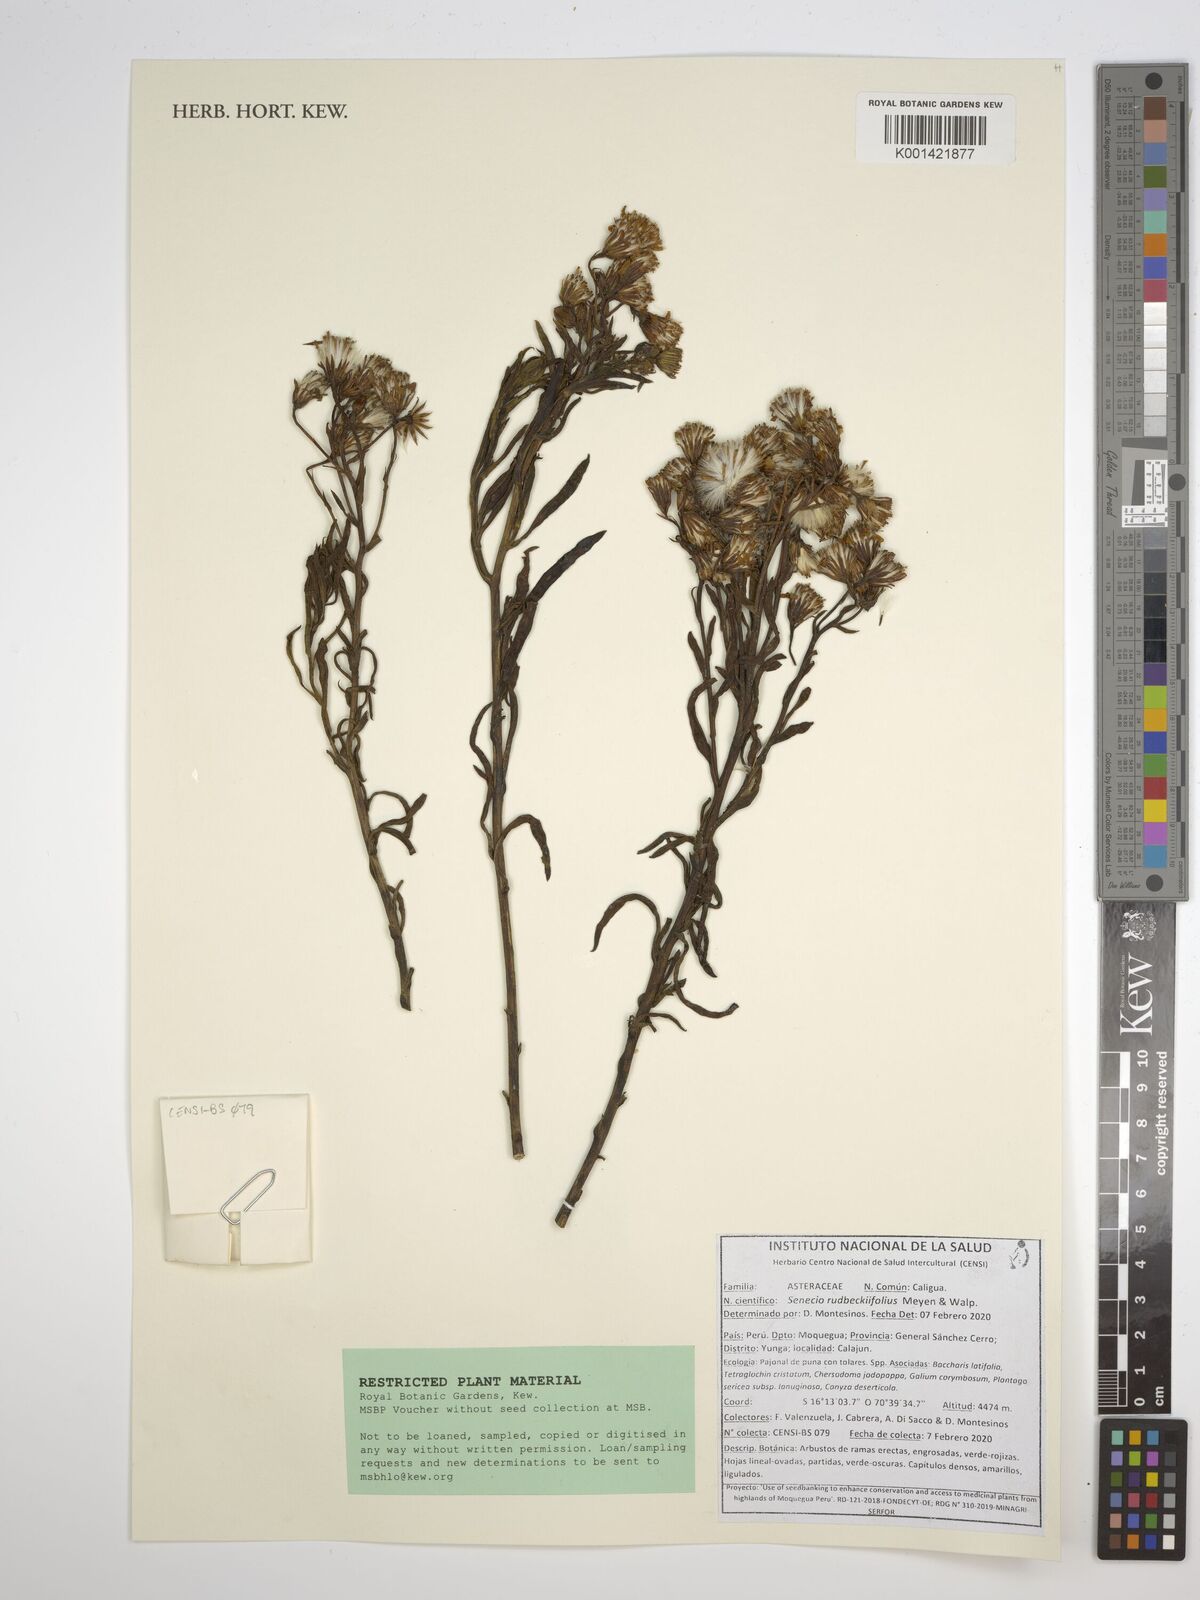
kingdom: Plantae
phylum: Tracheophyta
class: Magnoliopsida
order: Asterales
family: Asteraceae
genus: Senecio
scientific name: Senecio rudbeckiifolius
